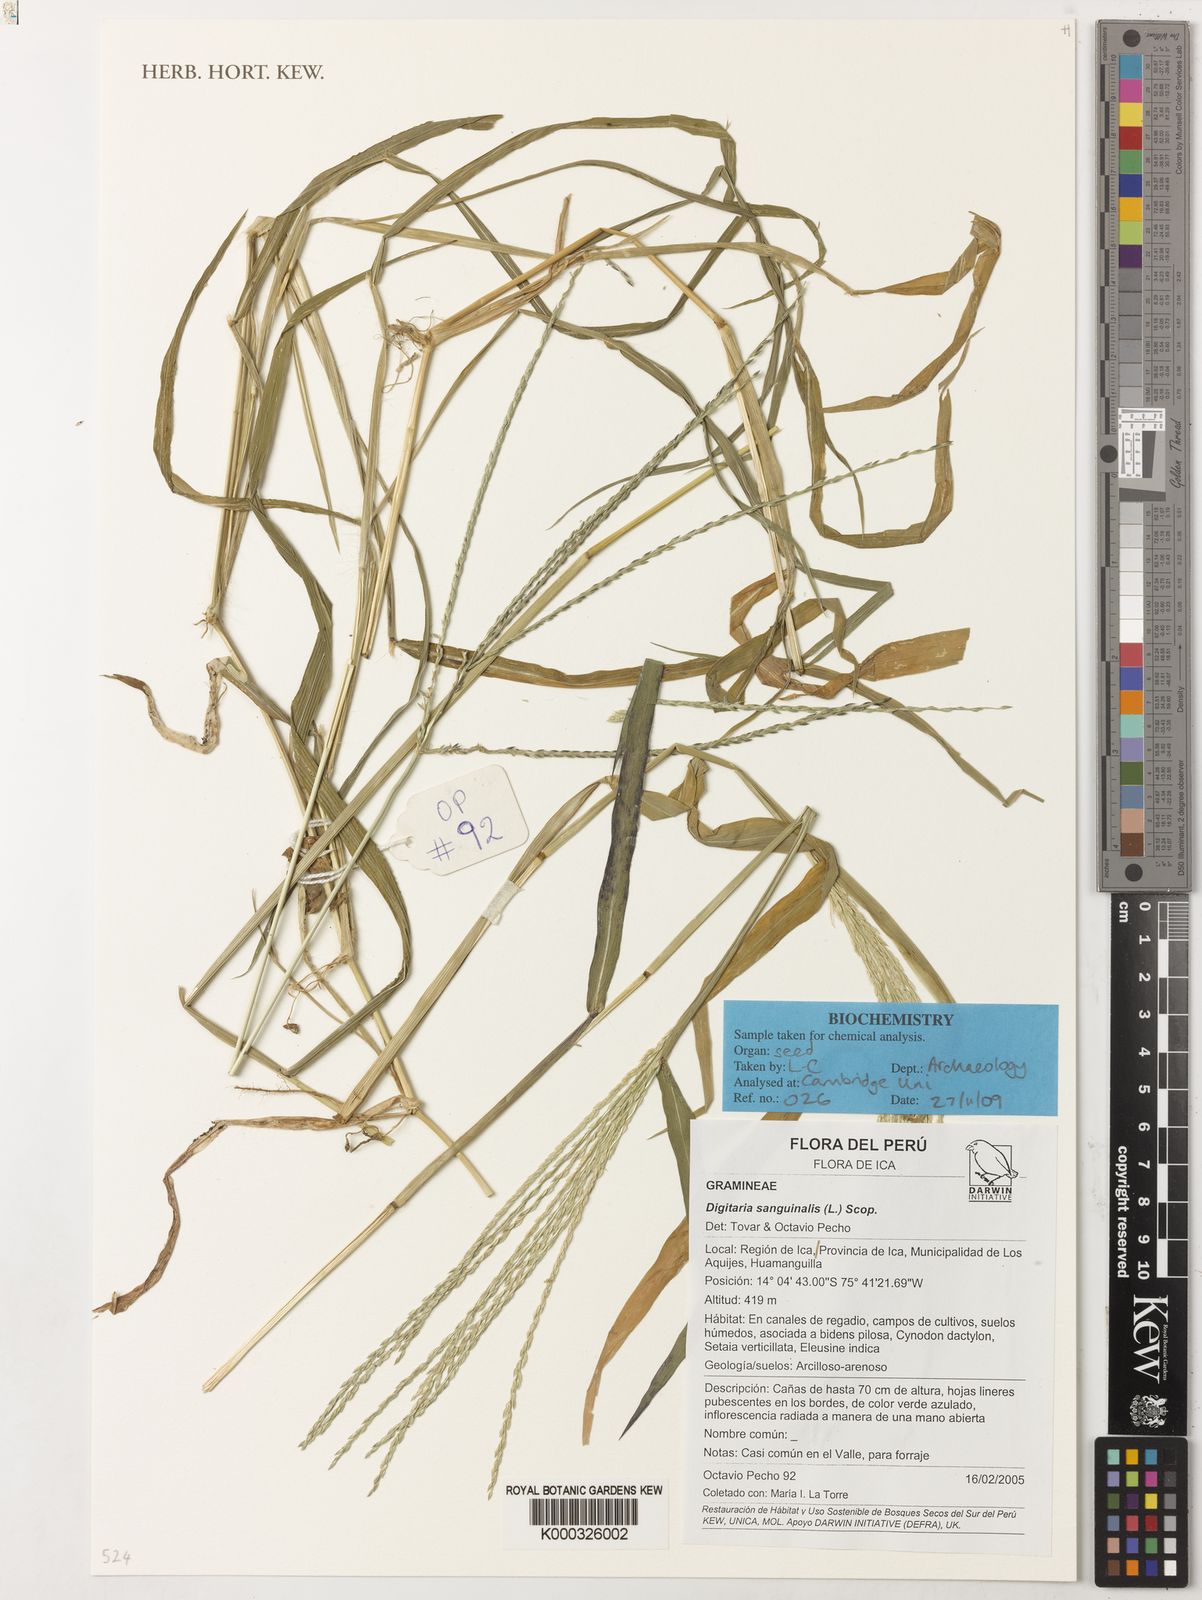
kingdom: Plantae
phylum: Tracheophyta
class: Liliopsida
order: Poales
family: Poaceae
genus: Digitaria
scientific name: Digitaria sanguinalis
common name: Hairy crabgrass
